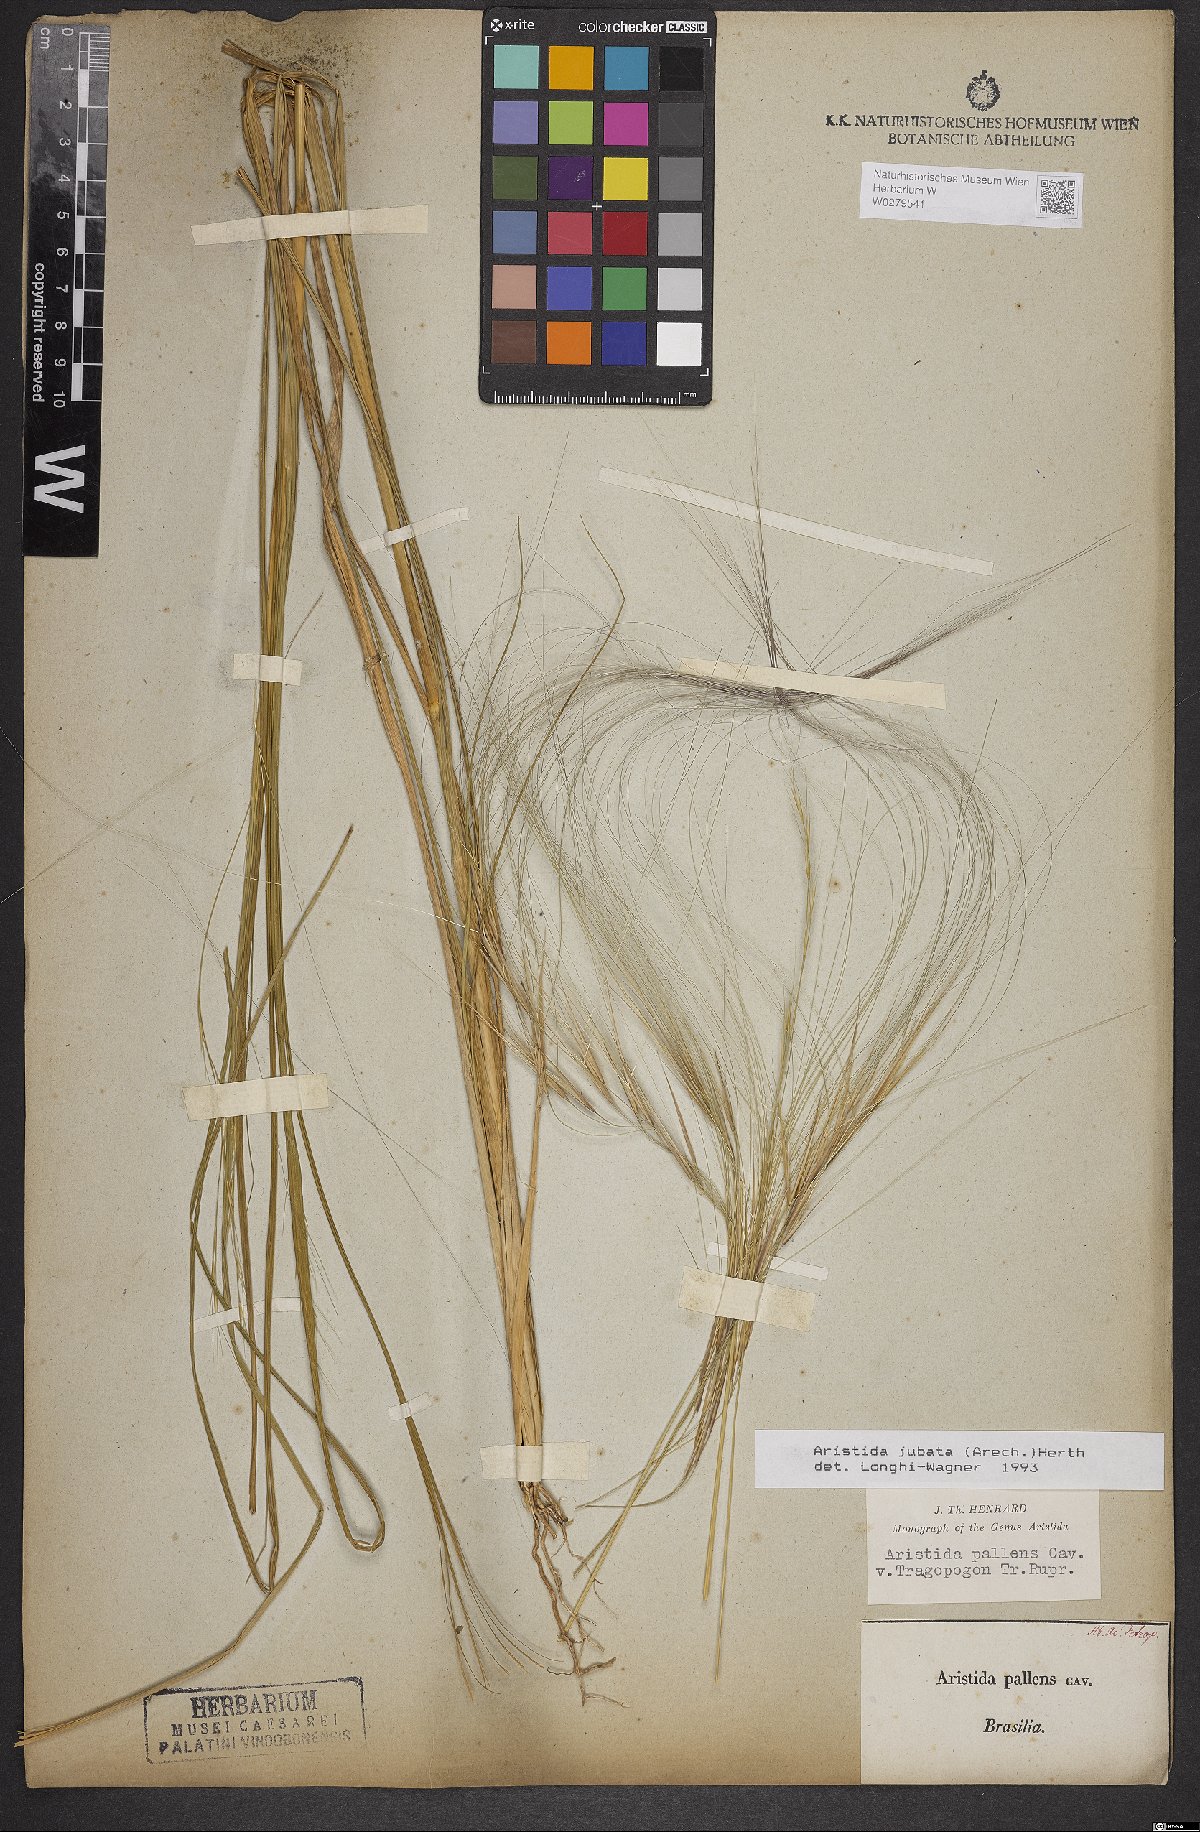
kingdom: Plantae
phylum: Tracheophyta
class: Liliopsida
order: Poales
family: Poaceae
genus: Aristida
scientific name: Aristida jubata
